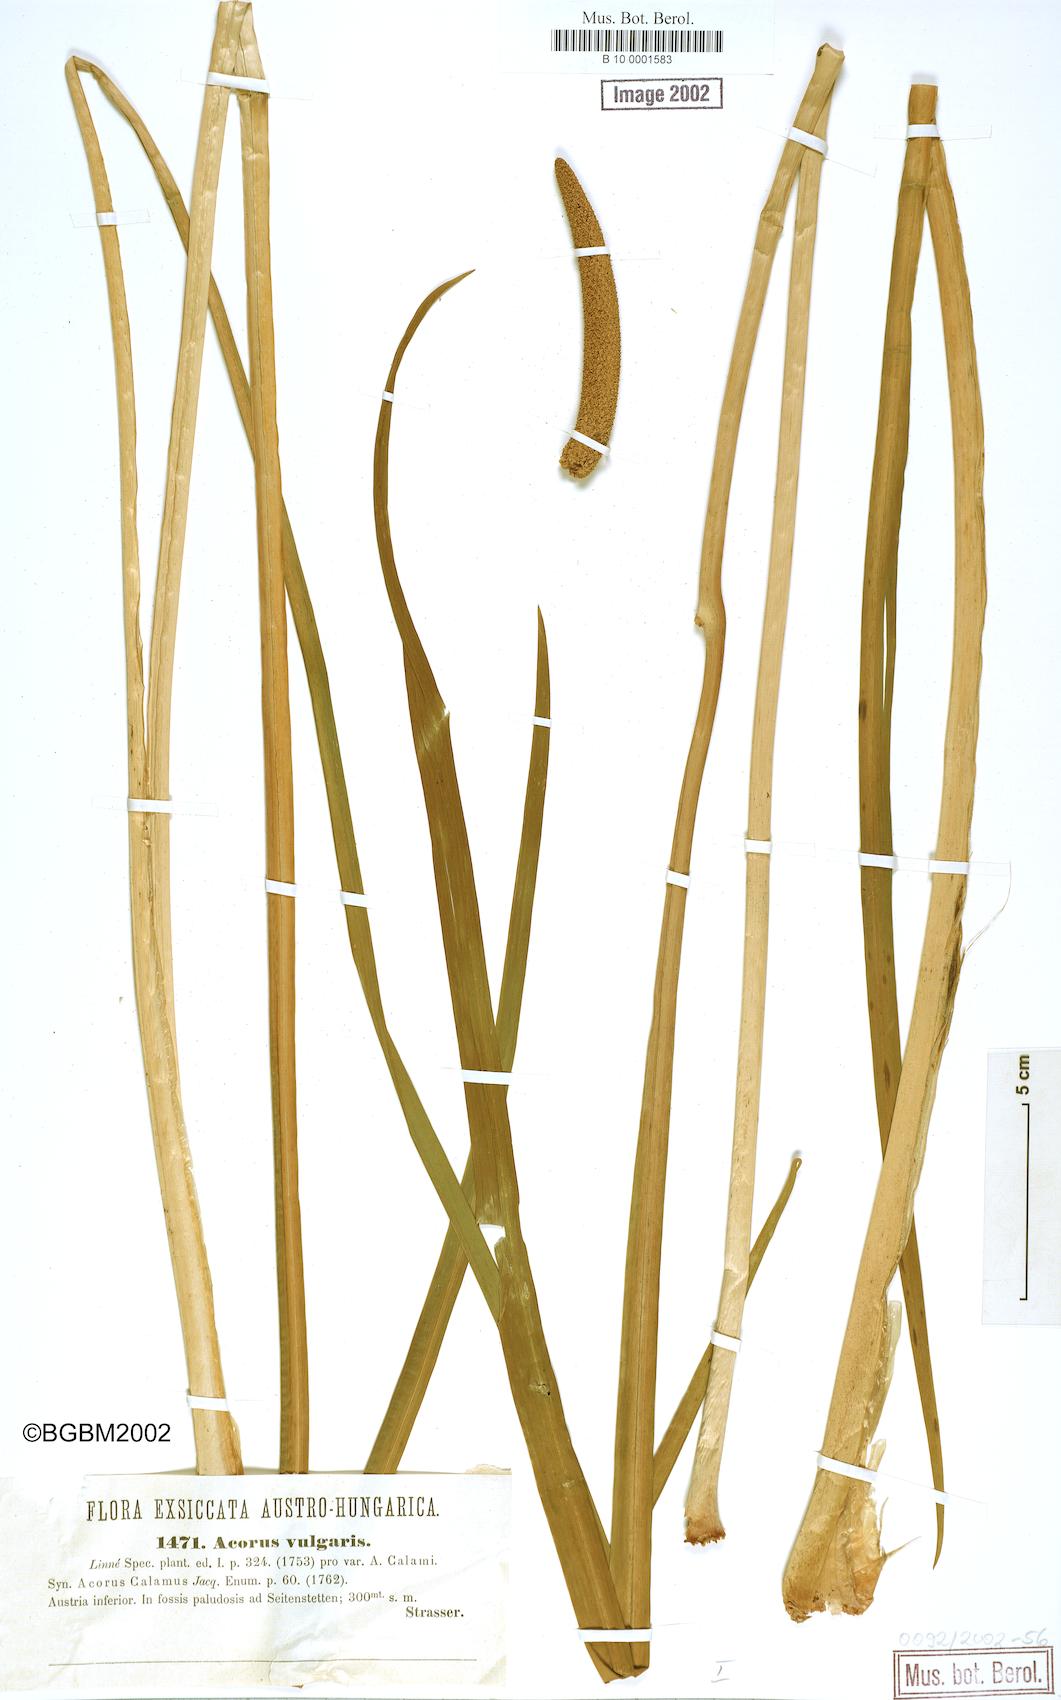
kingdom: Plantae
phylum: Tracheophyta
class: Liliopsida
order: Acorales
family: Acoraceae
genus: Acorus
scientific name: Acorus calamus
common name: Sweet-flag
